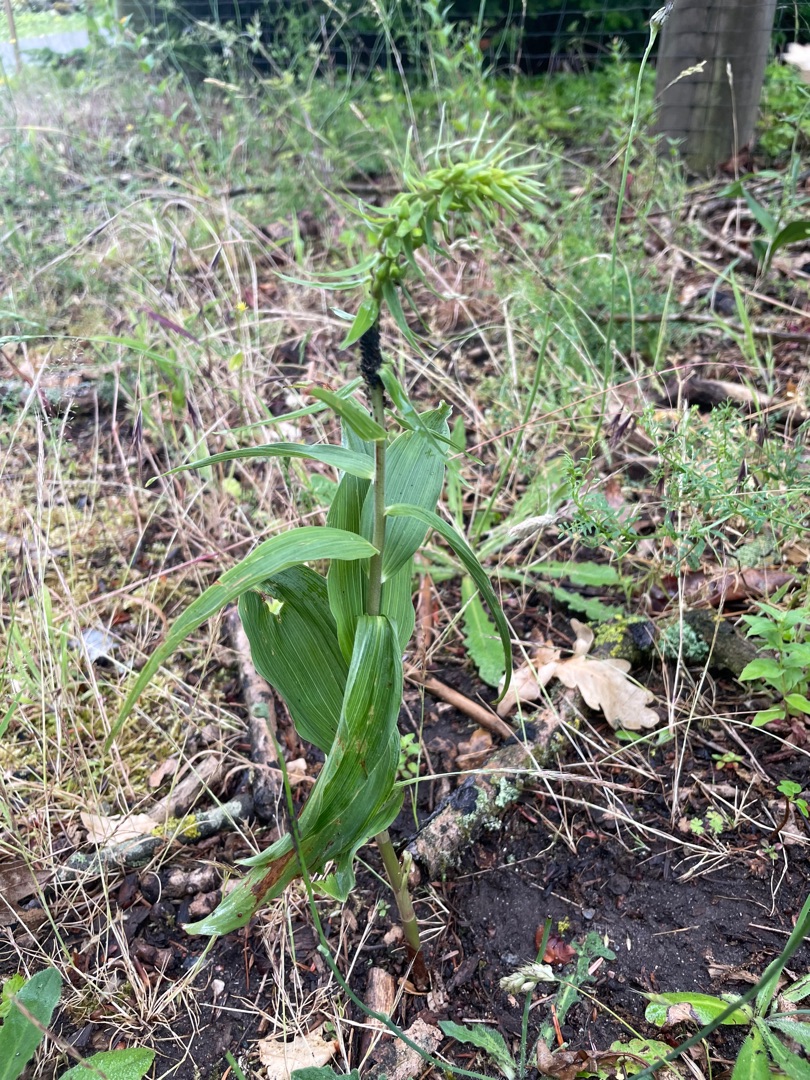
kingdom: Plantae
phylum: Tracheophyta
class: Liliopsida
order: Asparagales
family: Orchidaceae
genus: Epipactis
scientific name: Epipactis helleborine
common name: Skov-hullæbe
